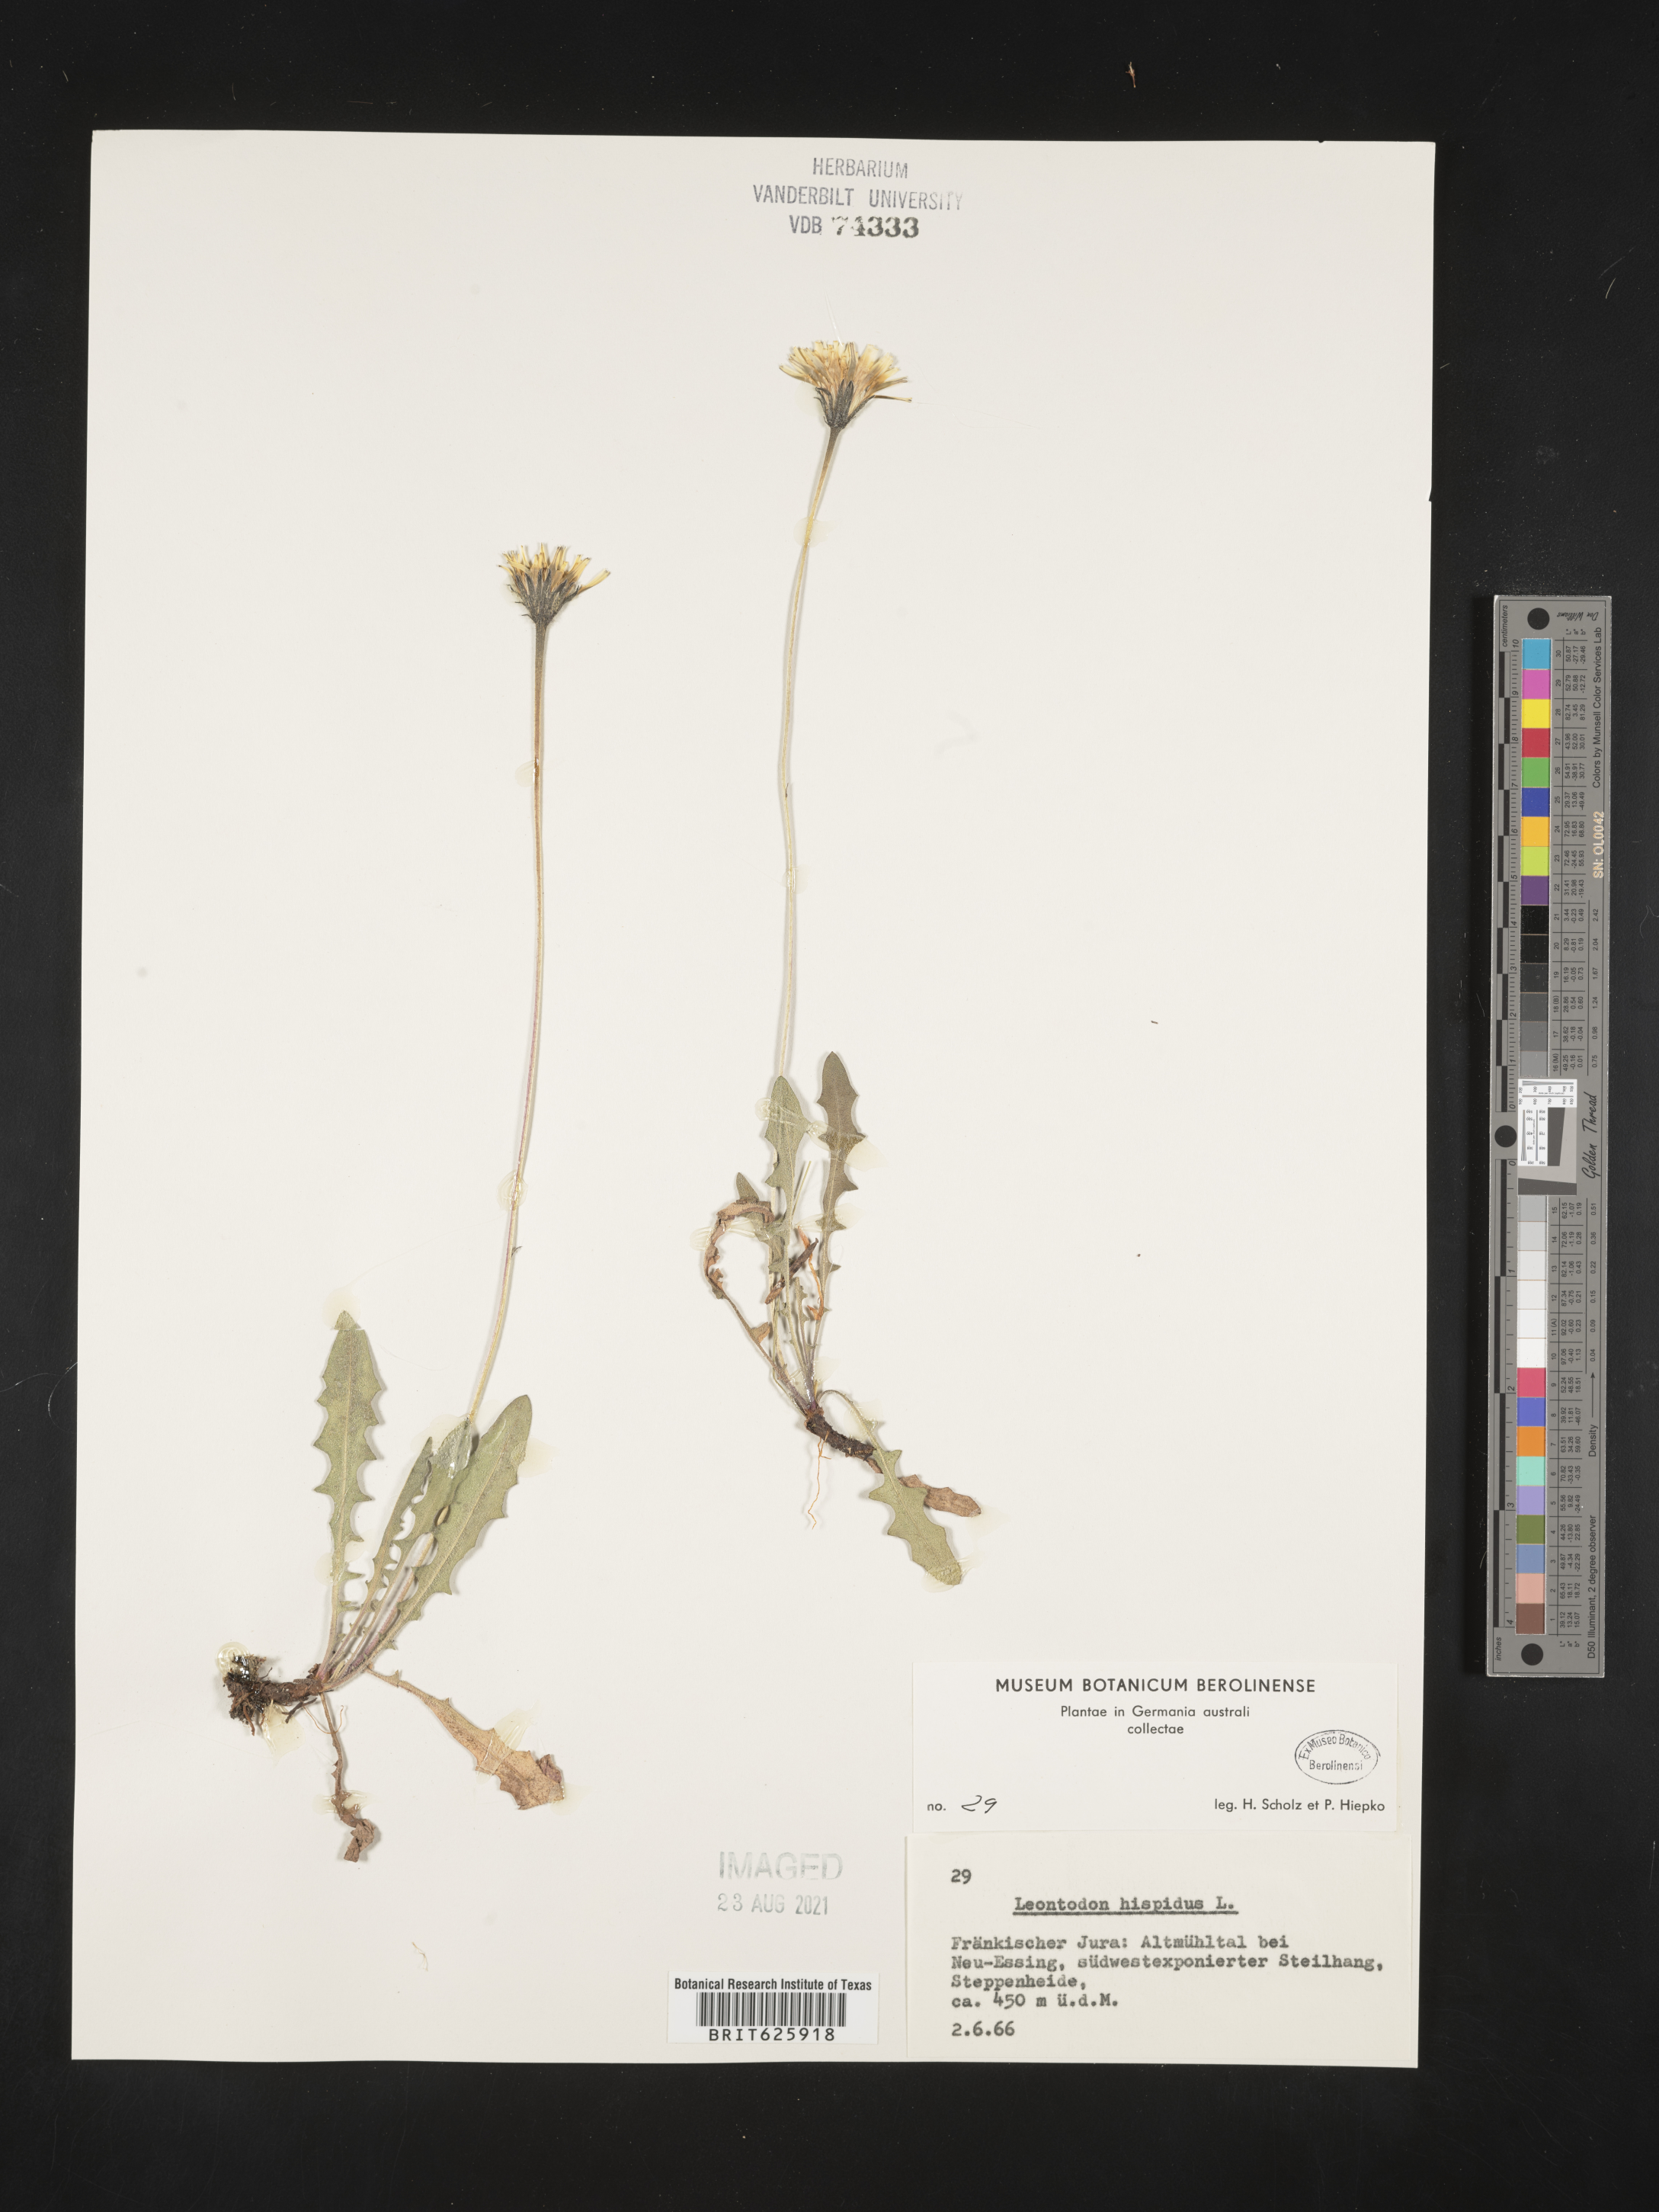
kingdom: Plantae
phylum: Tracheophyta
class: Magnoliopsida
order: Asterales
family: Asteraceae
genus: Leontodon
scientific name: Leontodon hispidus
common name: Rough hawkbit
